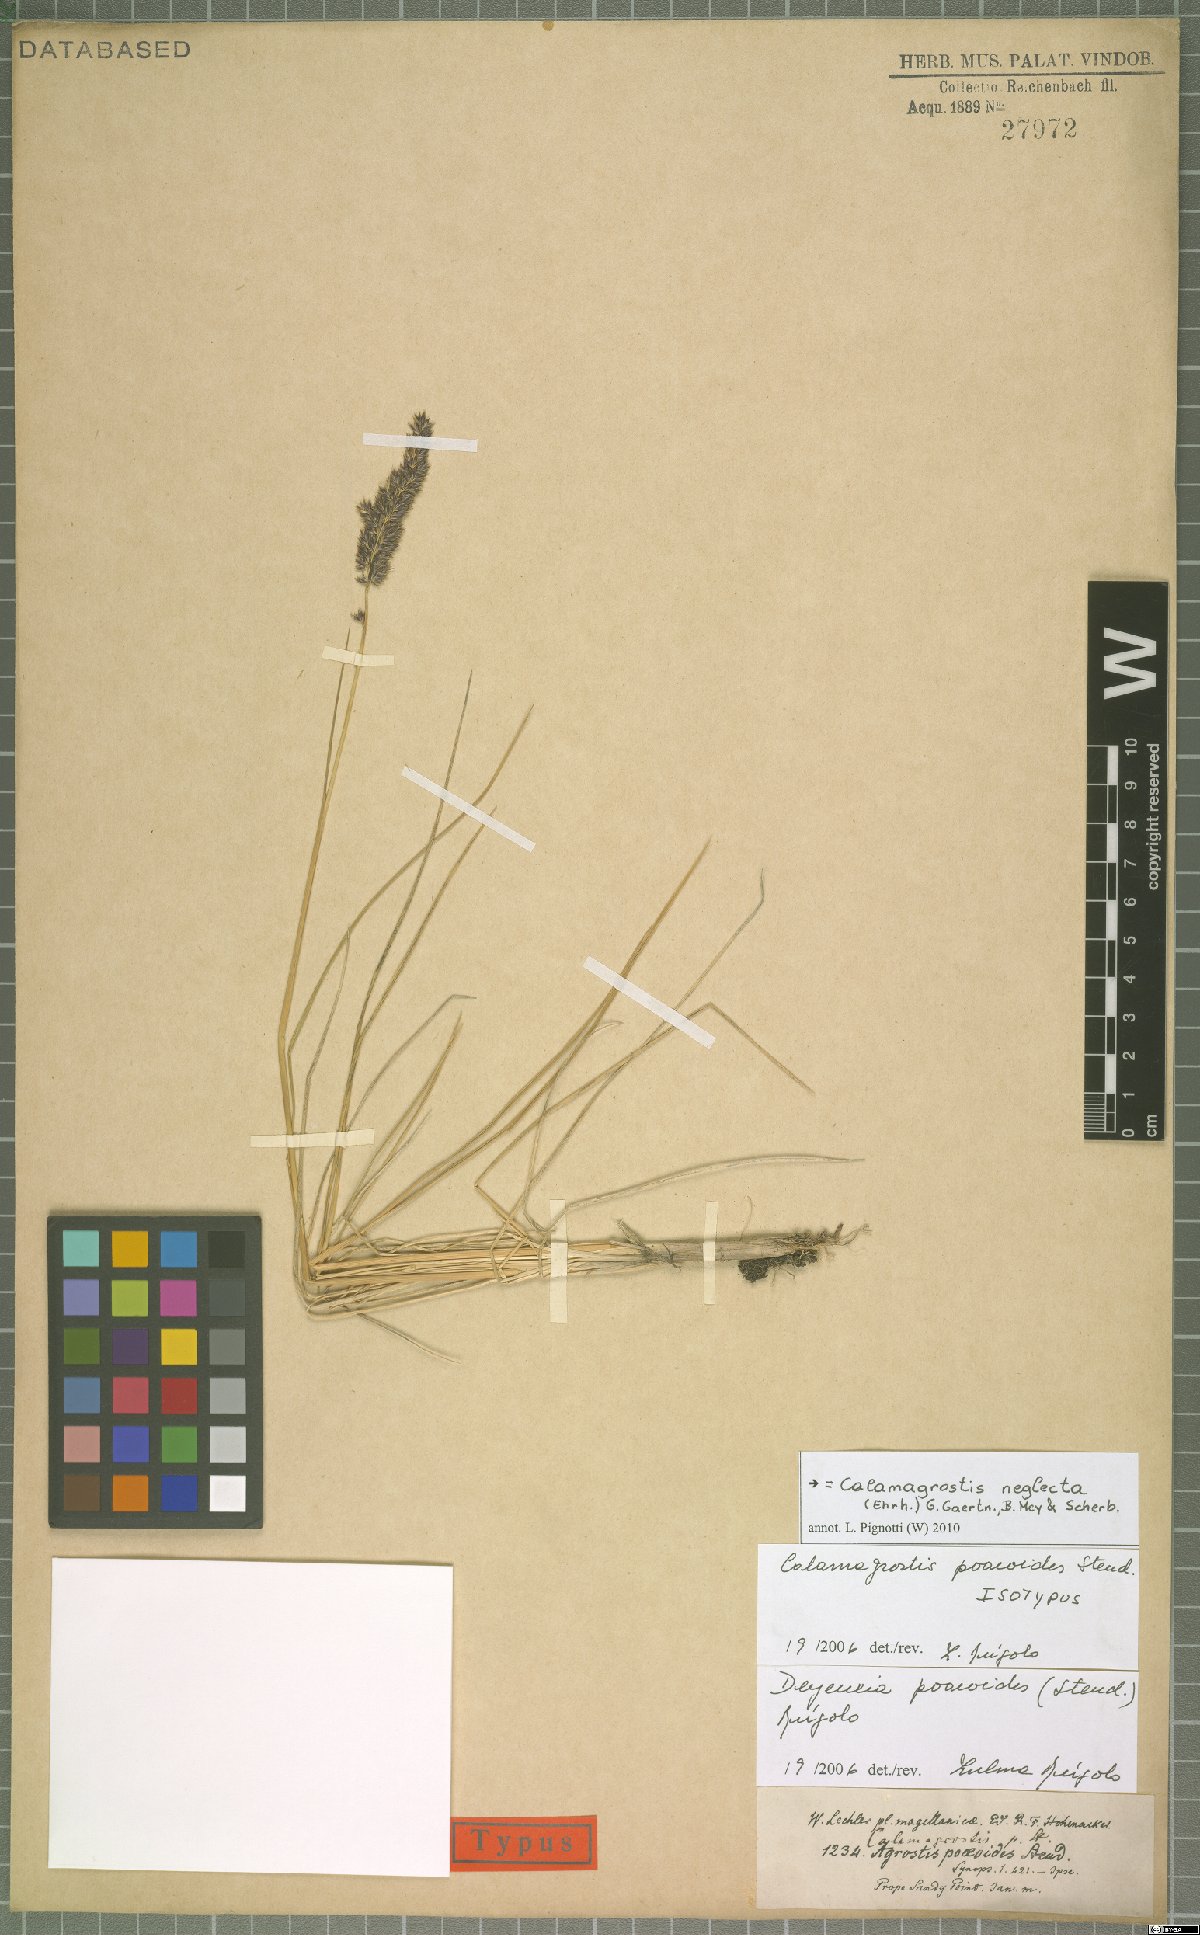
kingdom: Plantae
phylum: Tracheophyta
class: Liliopsida
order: Poales
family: Poaceae
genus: Achnatherum
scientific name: Achnatherum calamagrostis
